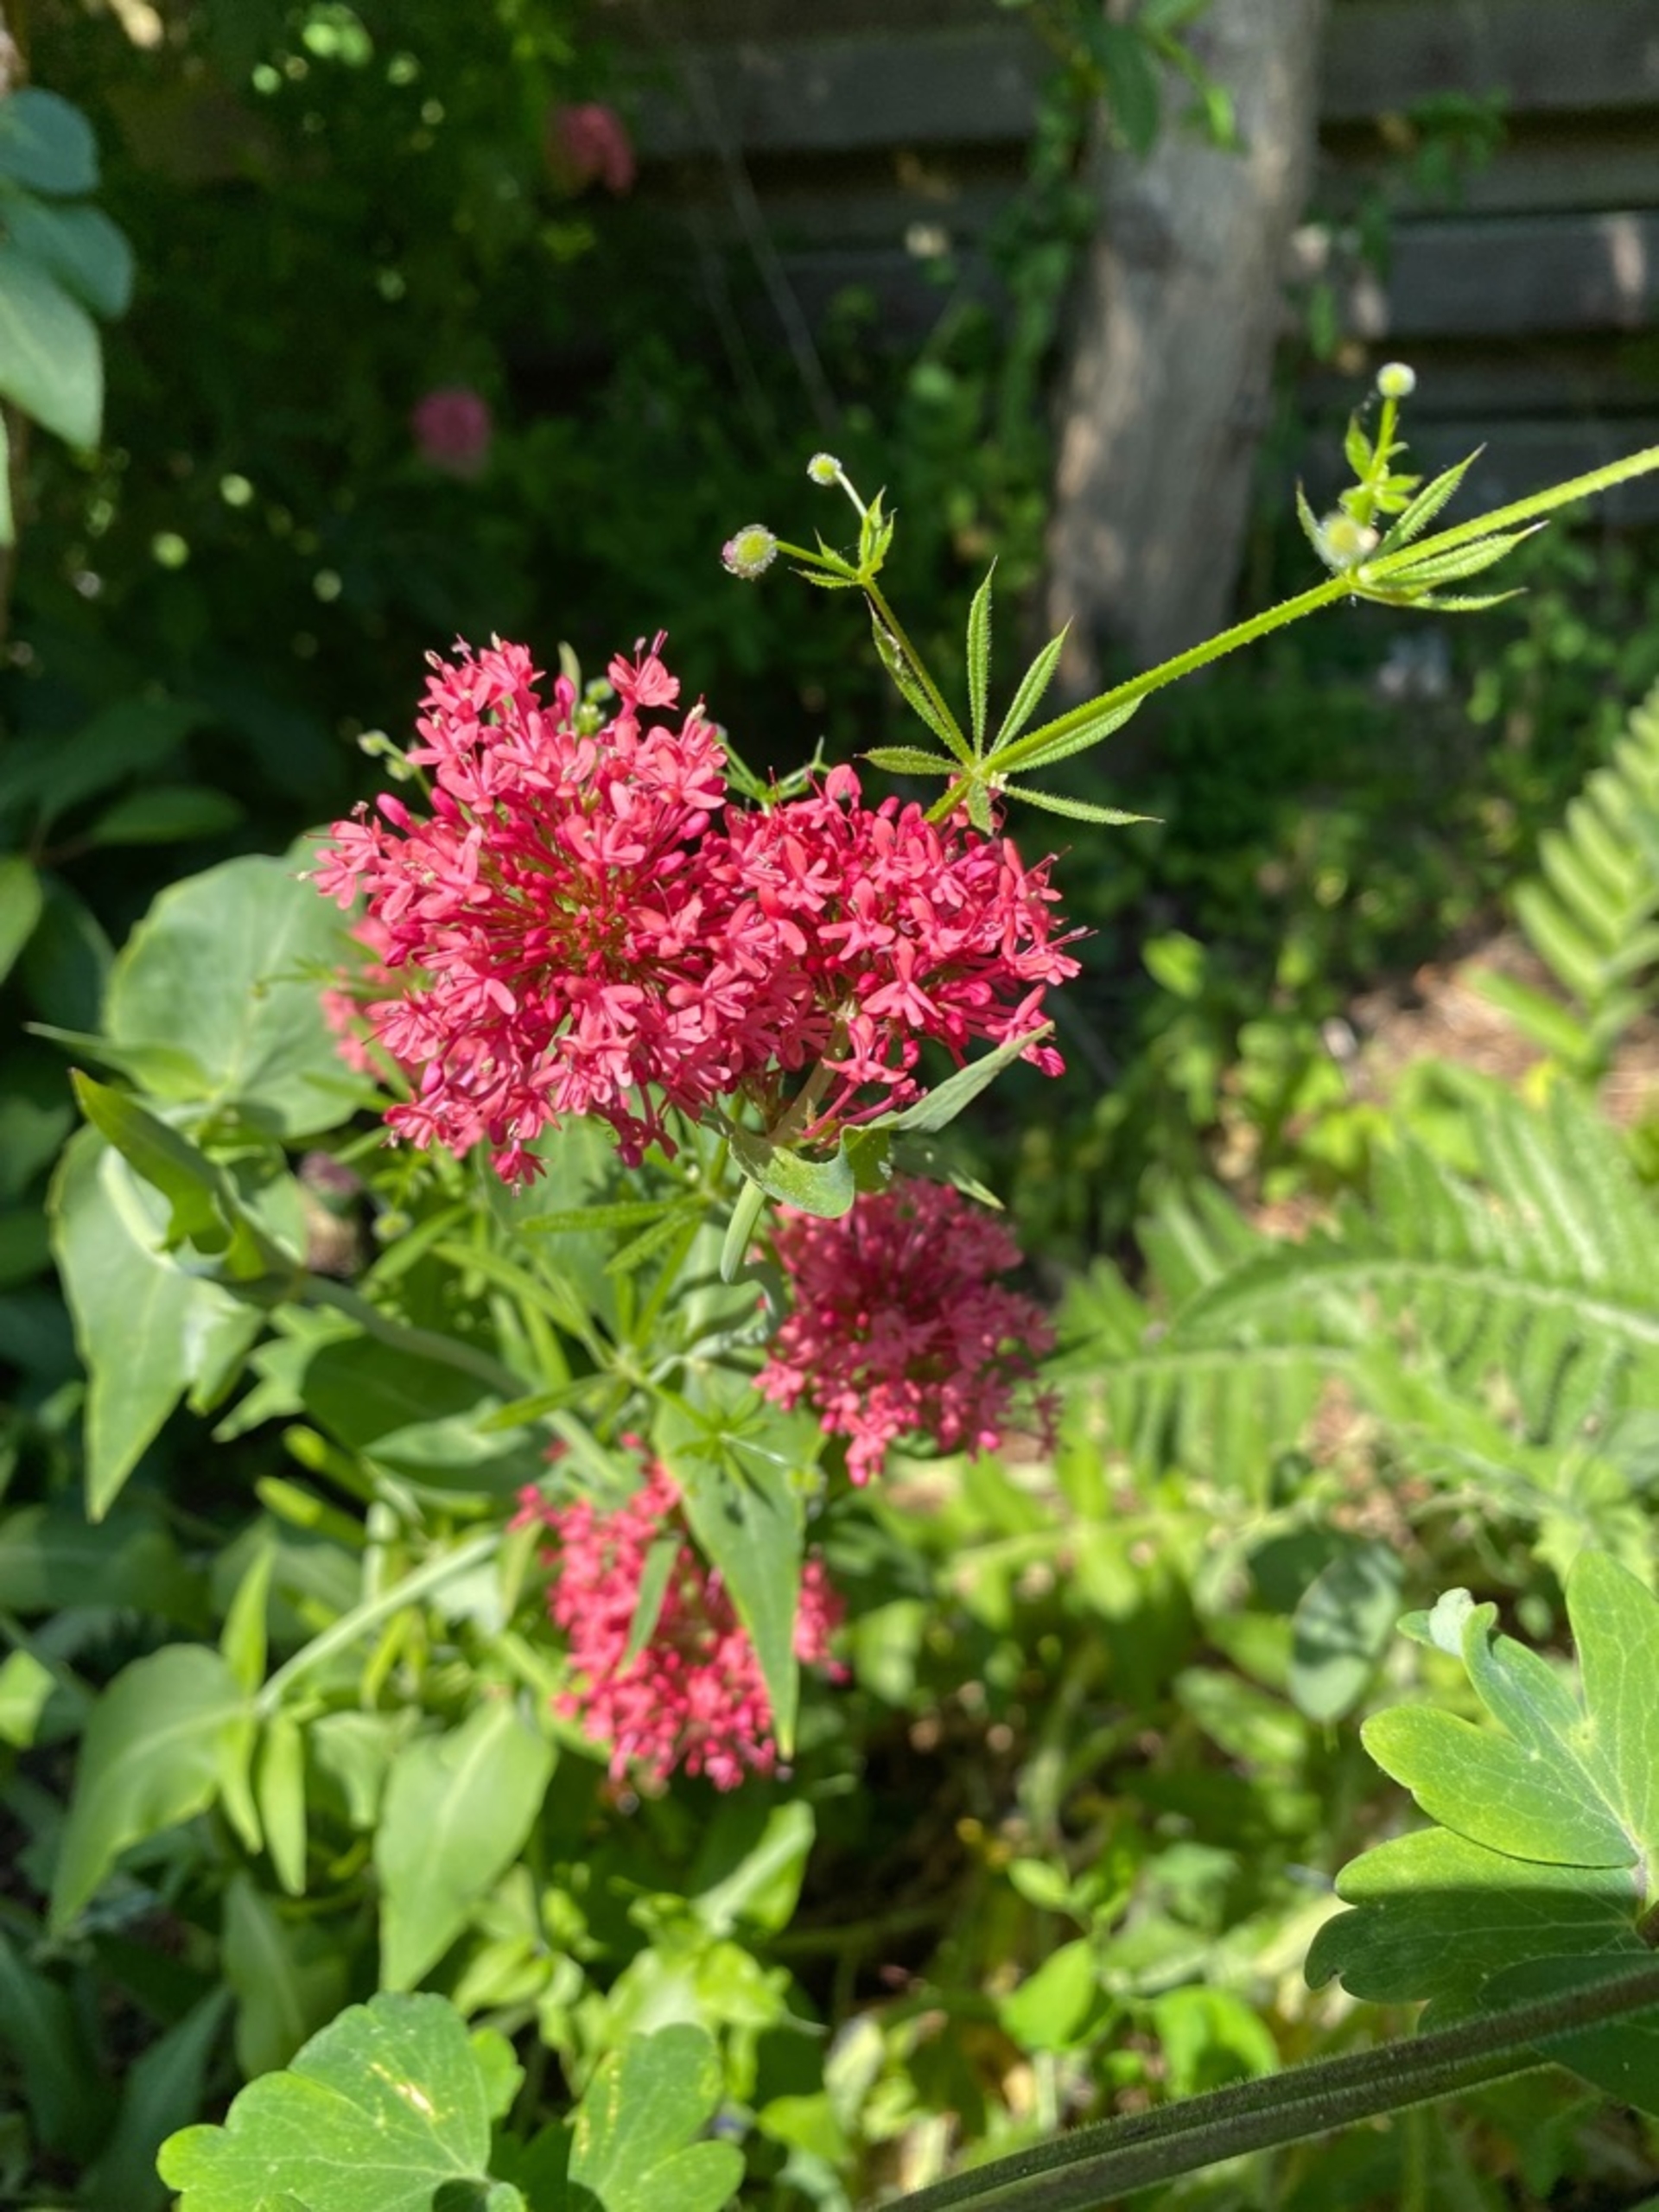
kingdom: Plantae
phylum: Tracheophyta
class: Magnoliopsida
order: Dipsacales
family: Caprifoliaceae
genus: Centranthus
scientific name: Centranthus ruber
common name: Sporebaldrian
